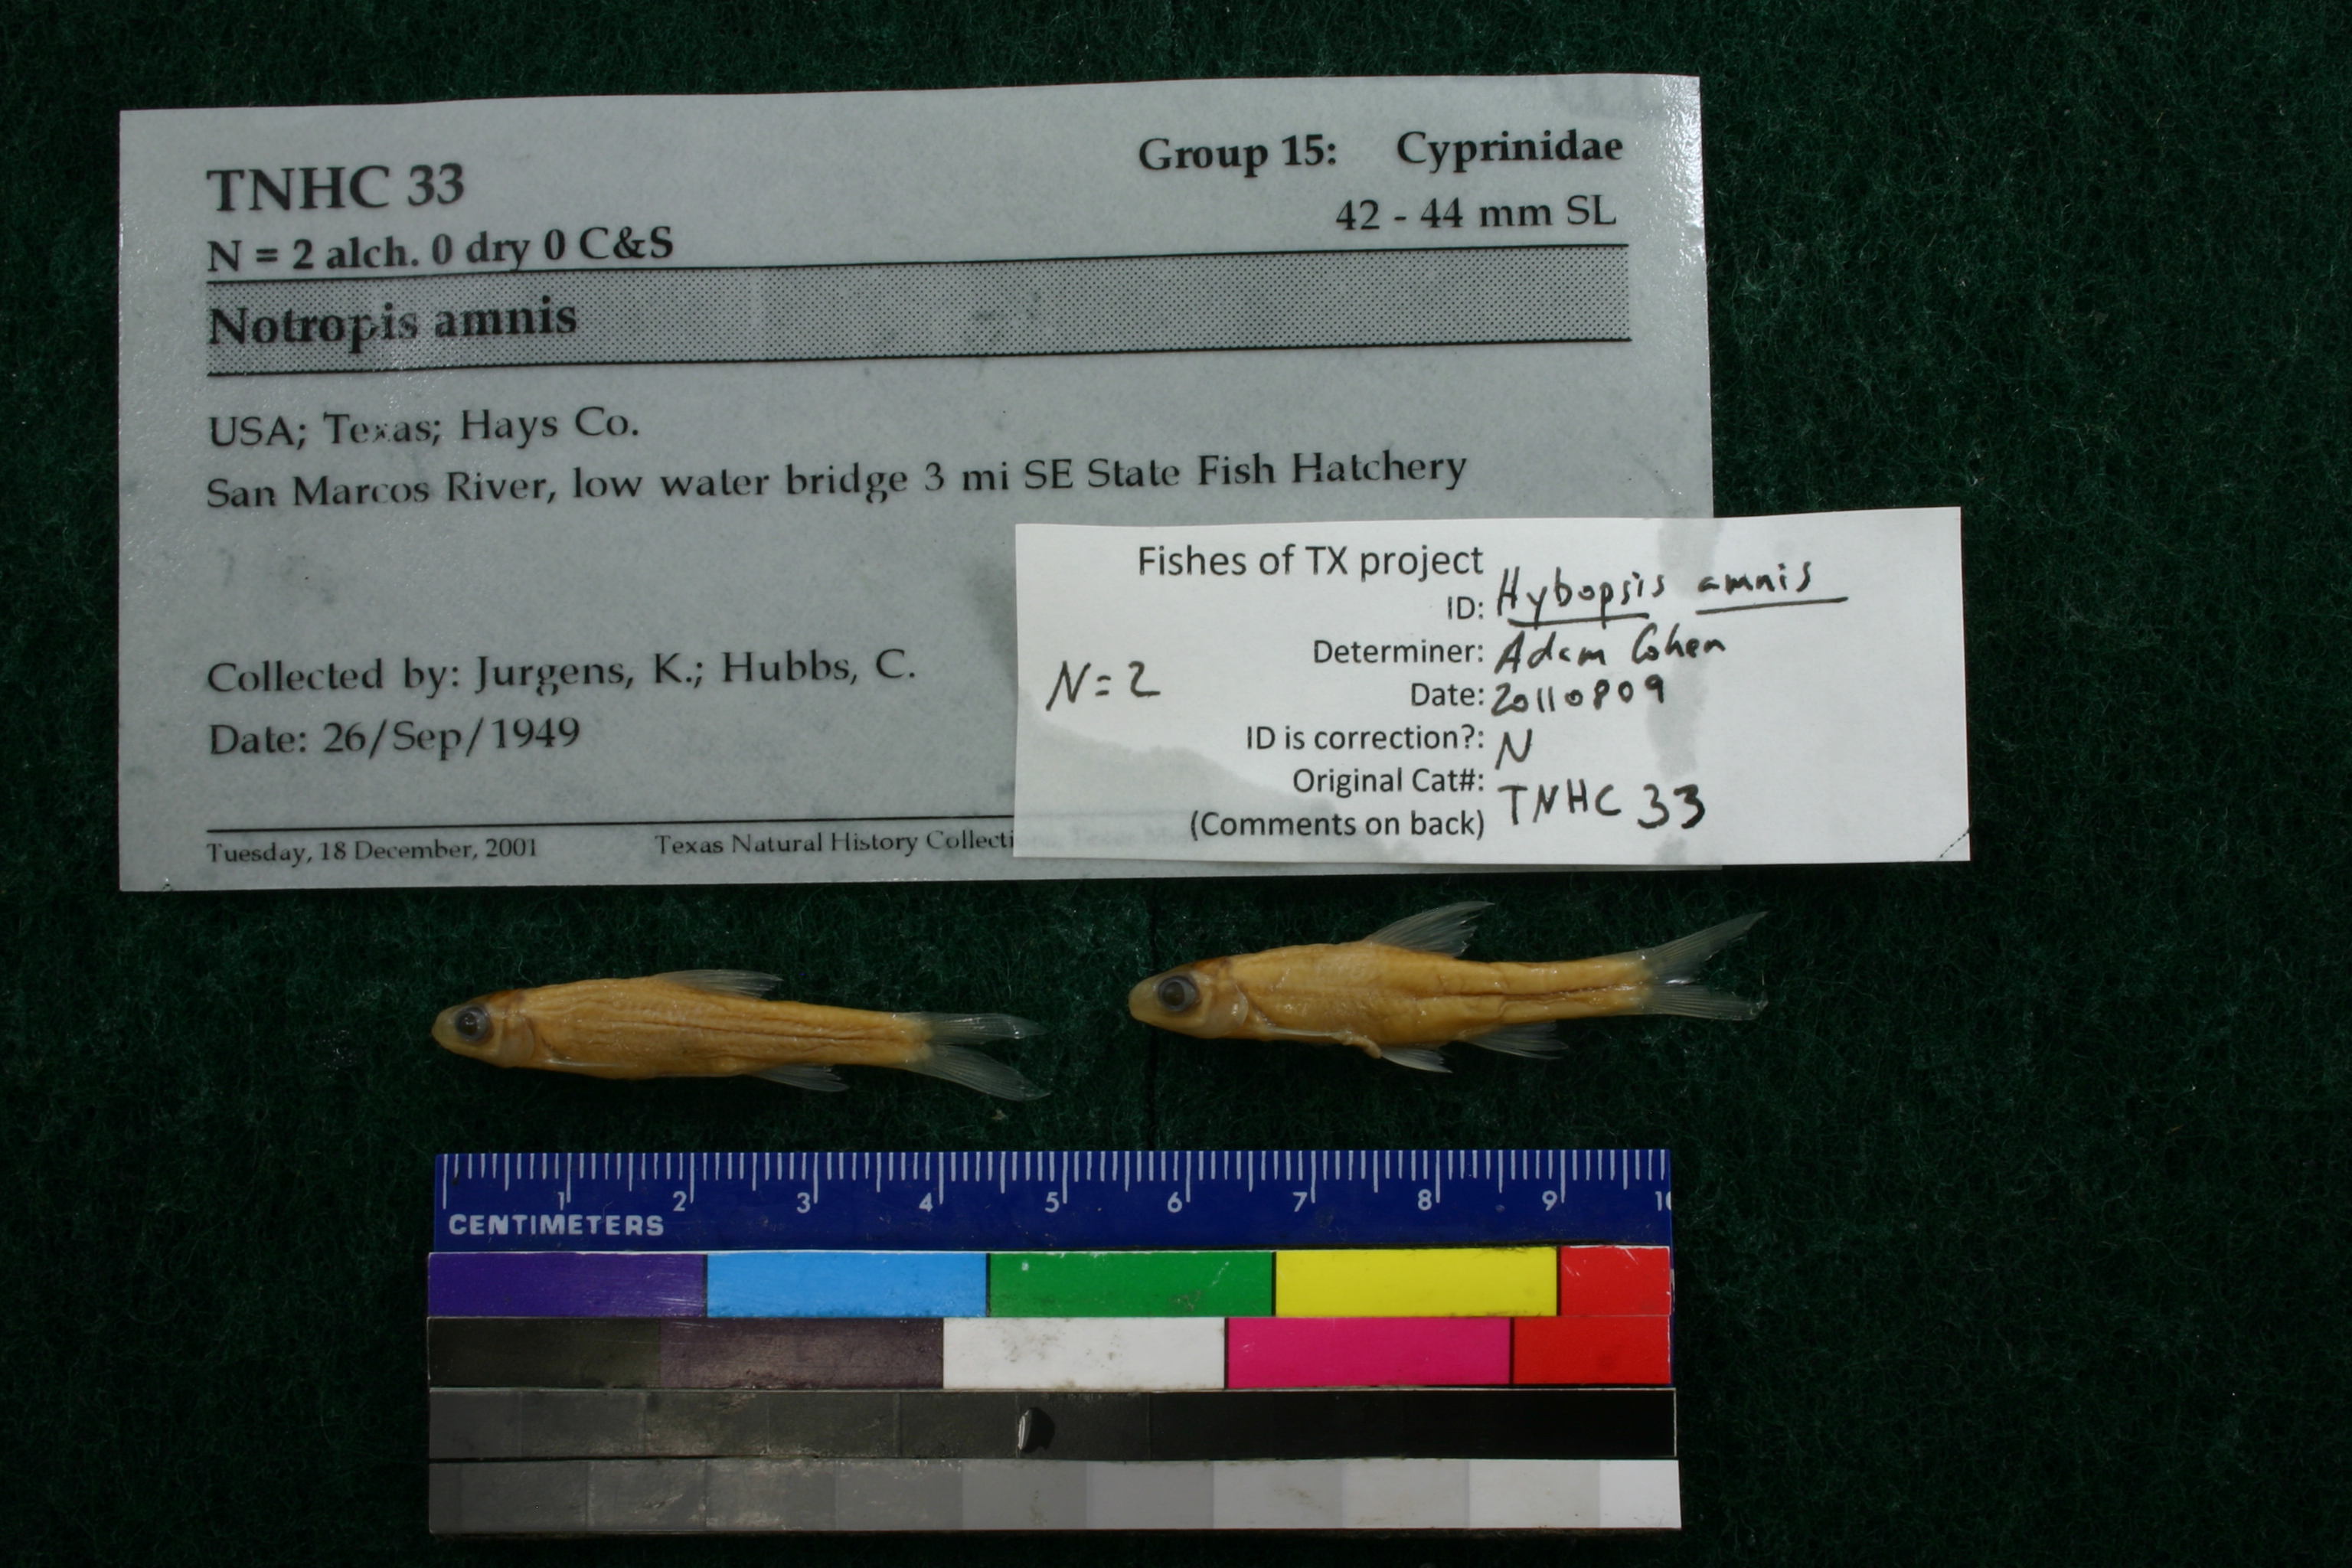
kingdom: Animalia
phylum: Chordata
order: Cypriniformes
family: Cyprinidae
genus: Hybopsis
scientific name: Hybopsis amnis
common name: Pallid shiner
